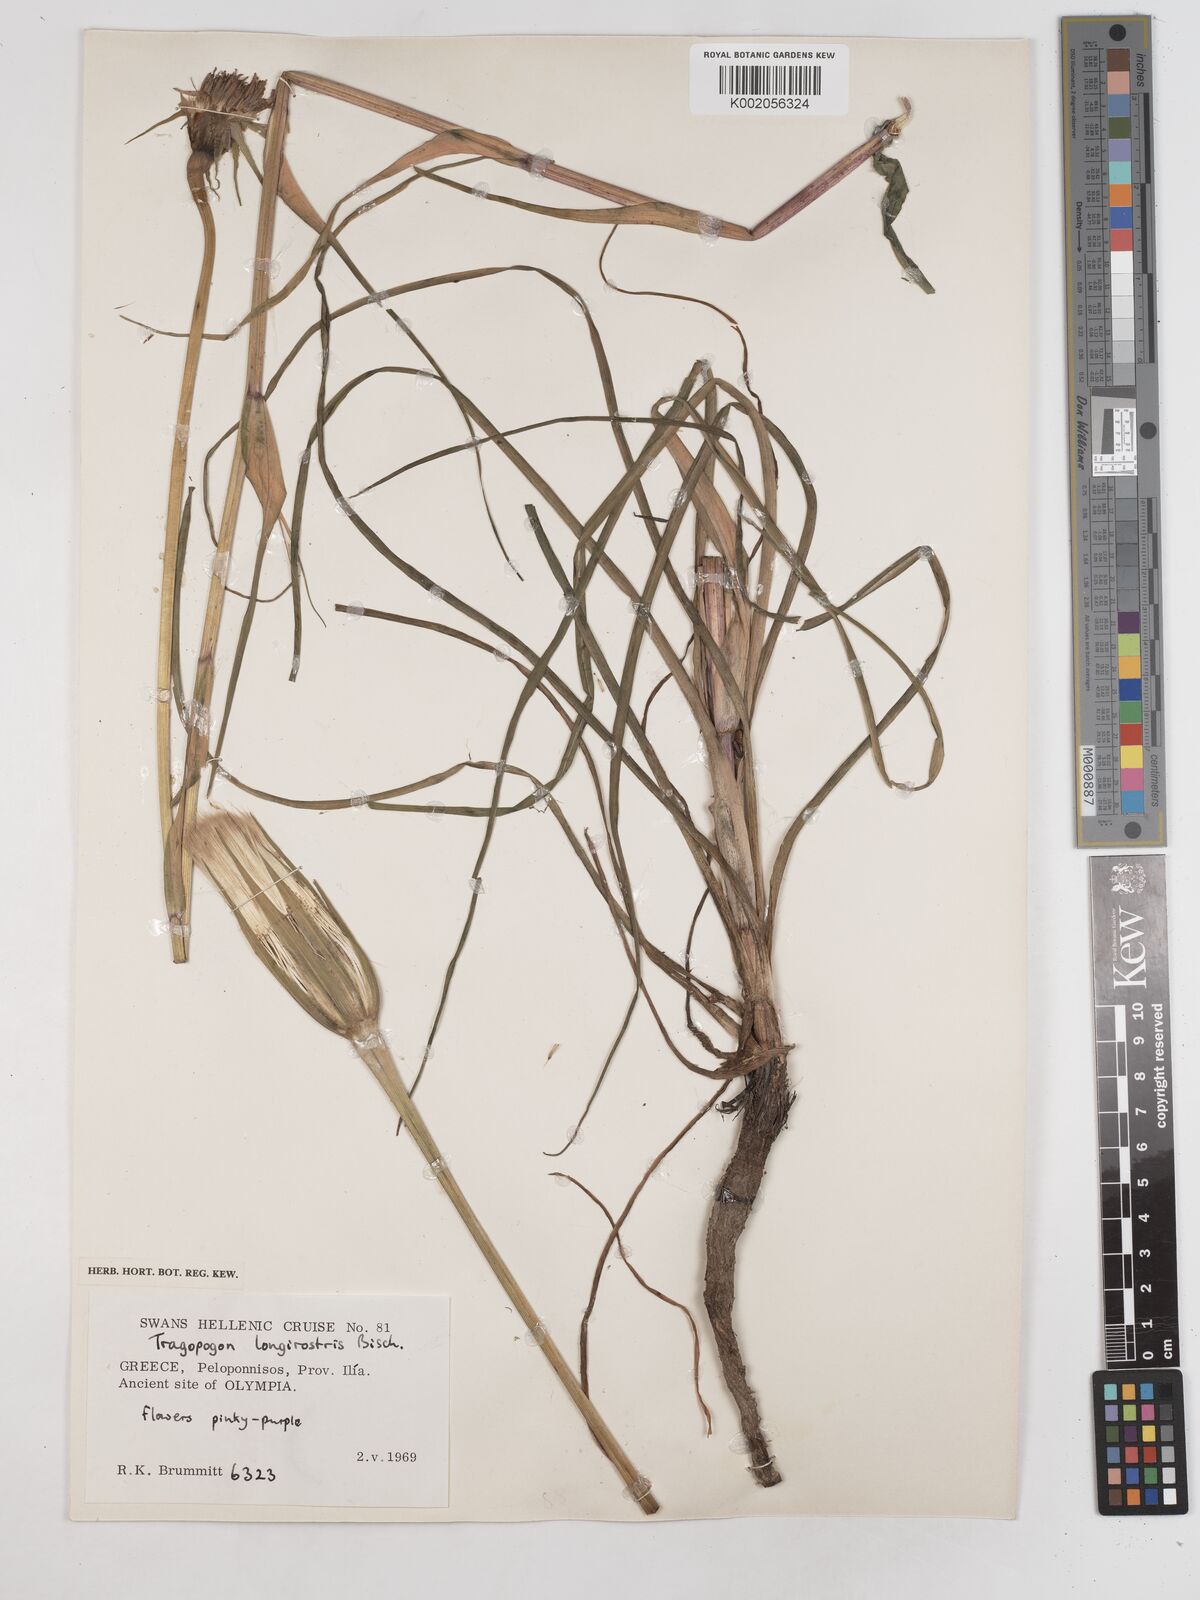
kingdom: Plantae
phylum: Tracheophyta
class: Magnoliopsida
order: Asterales
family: Asteraceae
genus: Tragopogon
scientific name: Tragopogon coelesyriacus
